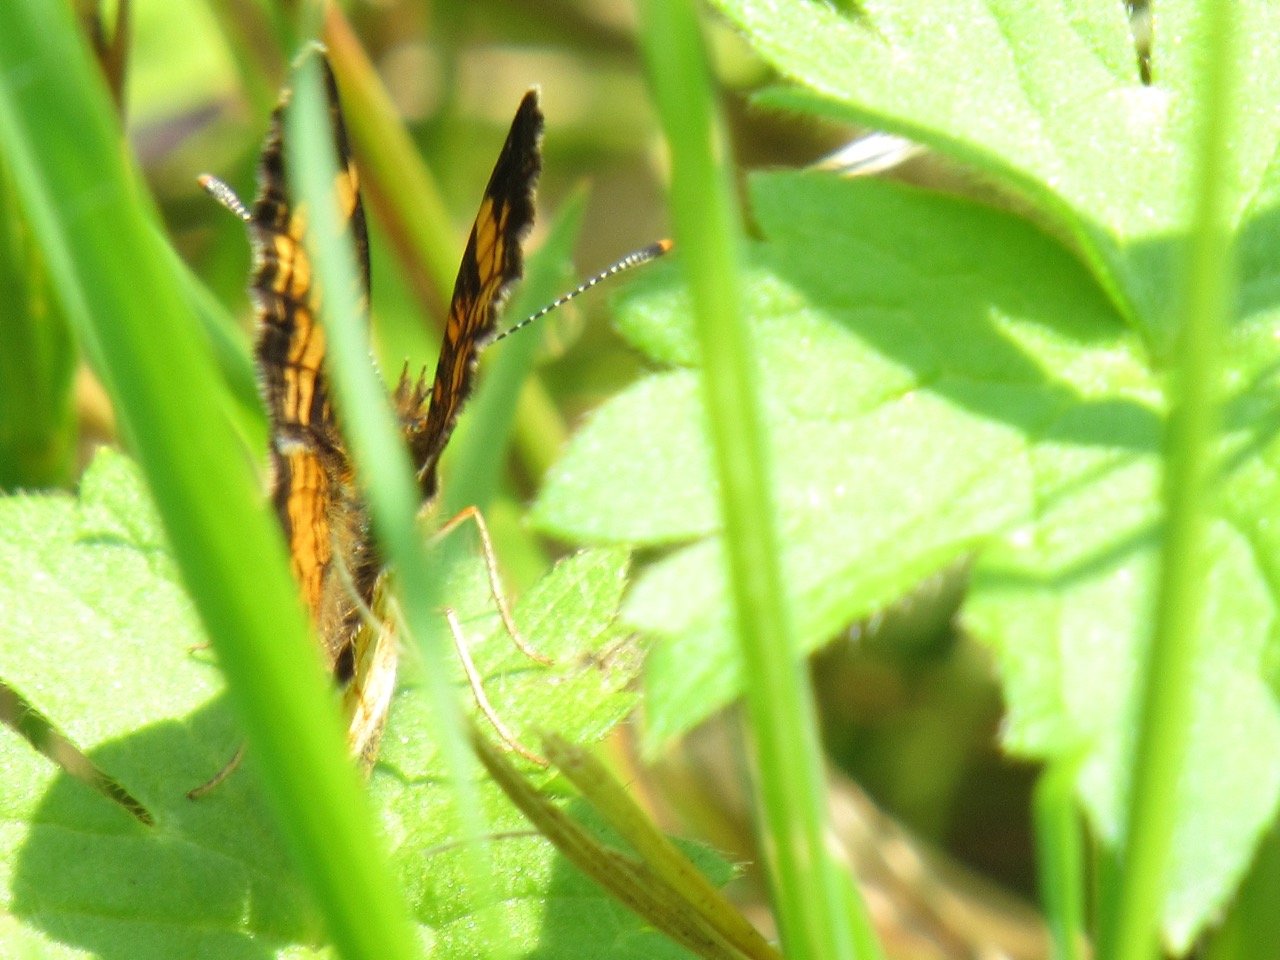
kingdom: Animalia
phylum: Arthropoda
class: Insecta
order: Lepidoptera
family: Nymphalidae
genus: Phyciodes
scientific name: Phyciodes tharos
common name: Pearl Crescent
